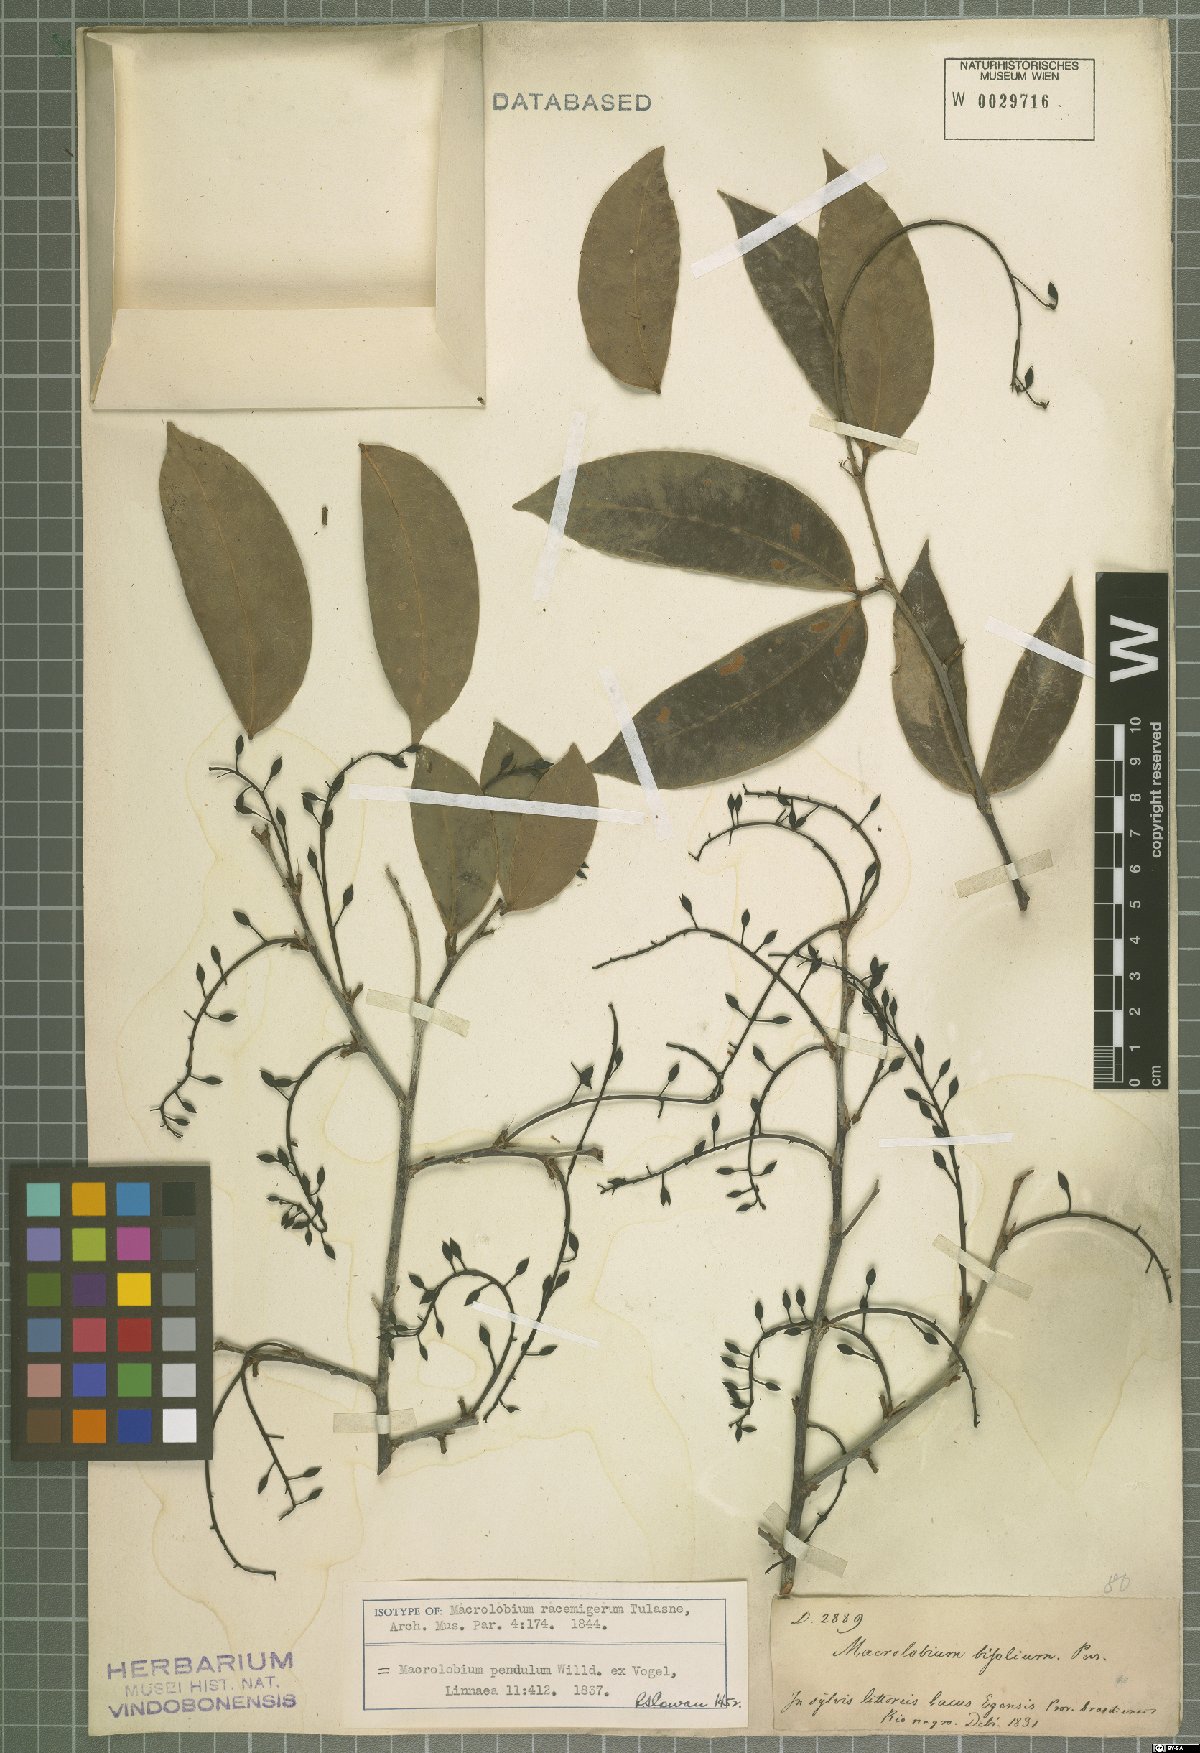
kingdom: Plantae
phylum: Tracheophyta
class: Magnoliopsida
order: Fabales
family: Fabaceae
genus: Macrolobium
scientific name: Macrolobium pendulum
